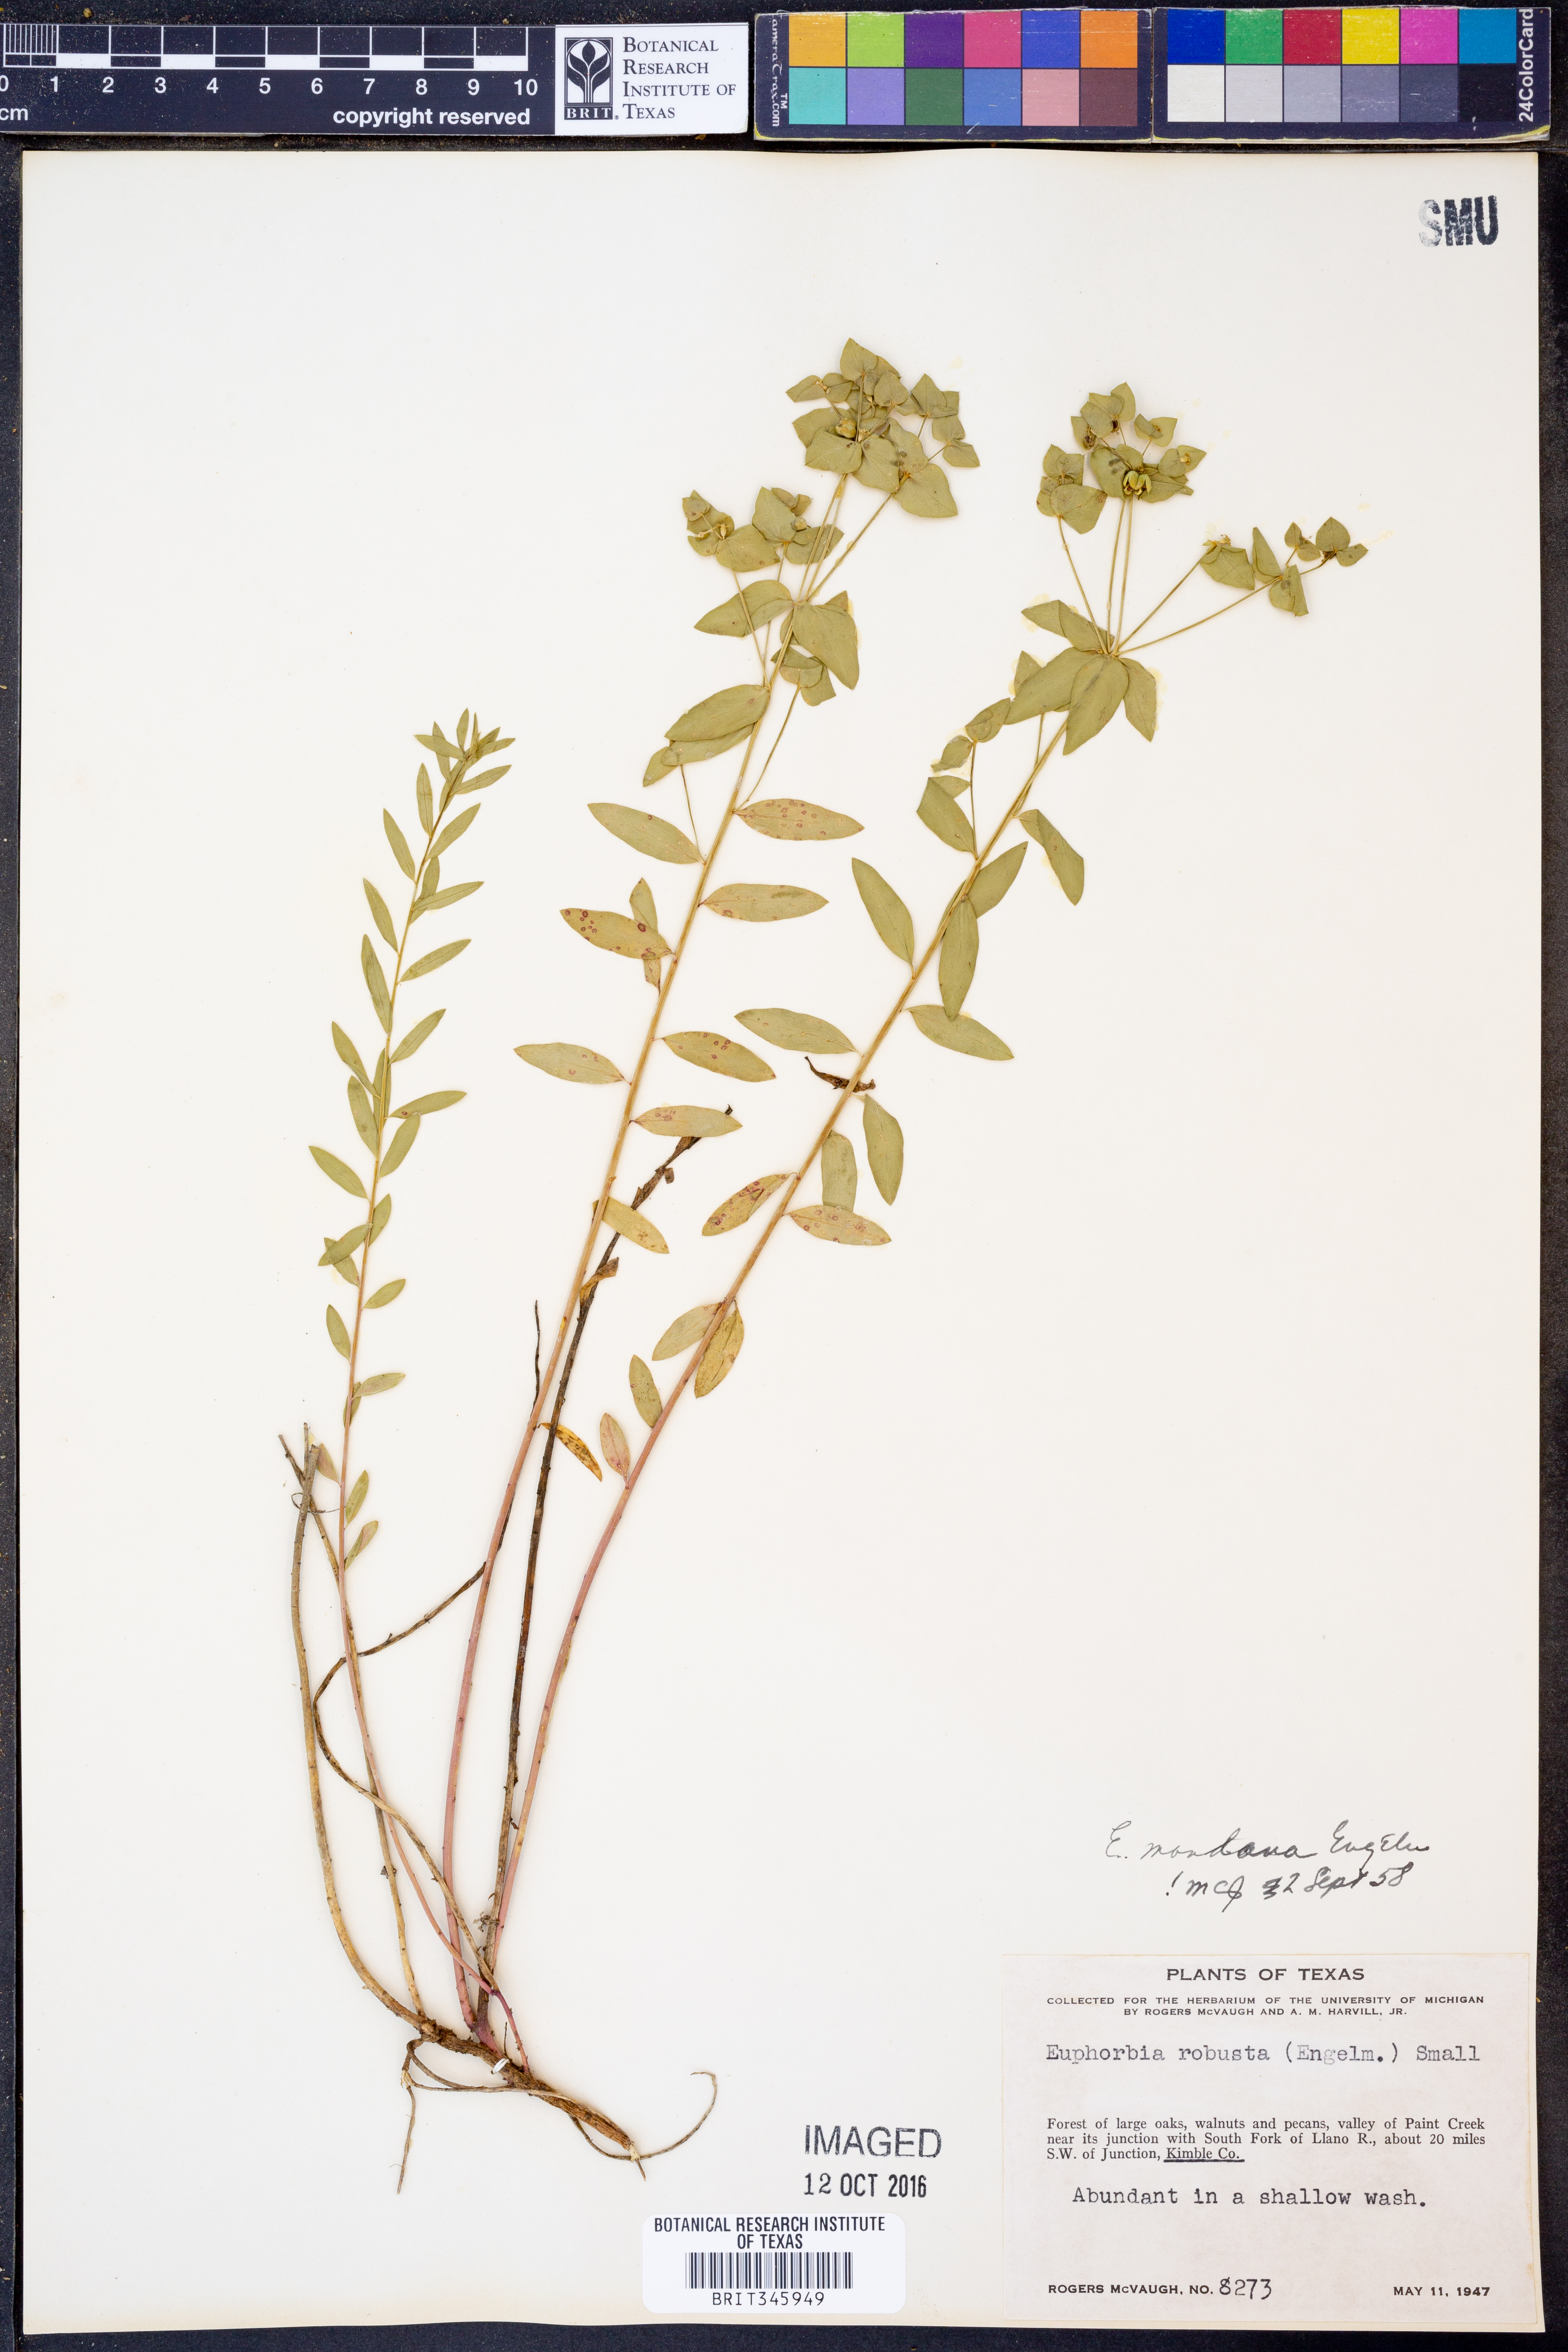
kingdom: Plantae
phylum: Tracheophyta
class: Magnoliopsida
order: Malpighiales
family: Euphorbiaceae
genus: Euphorbia
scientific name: Euphorbia brachycera
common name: Shorthorn spurge
